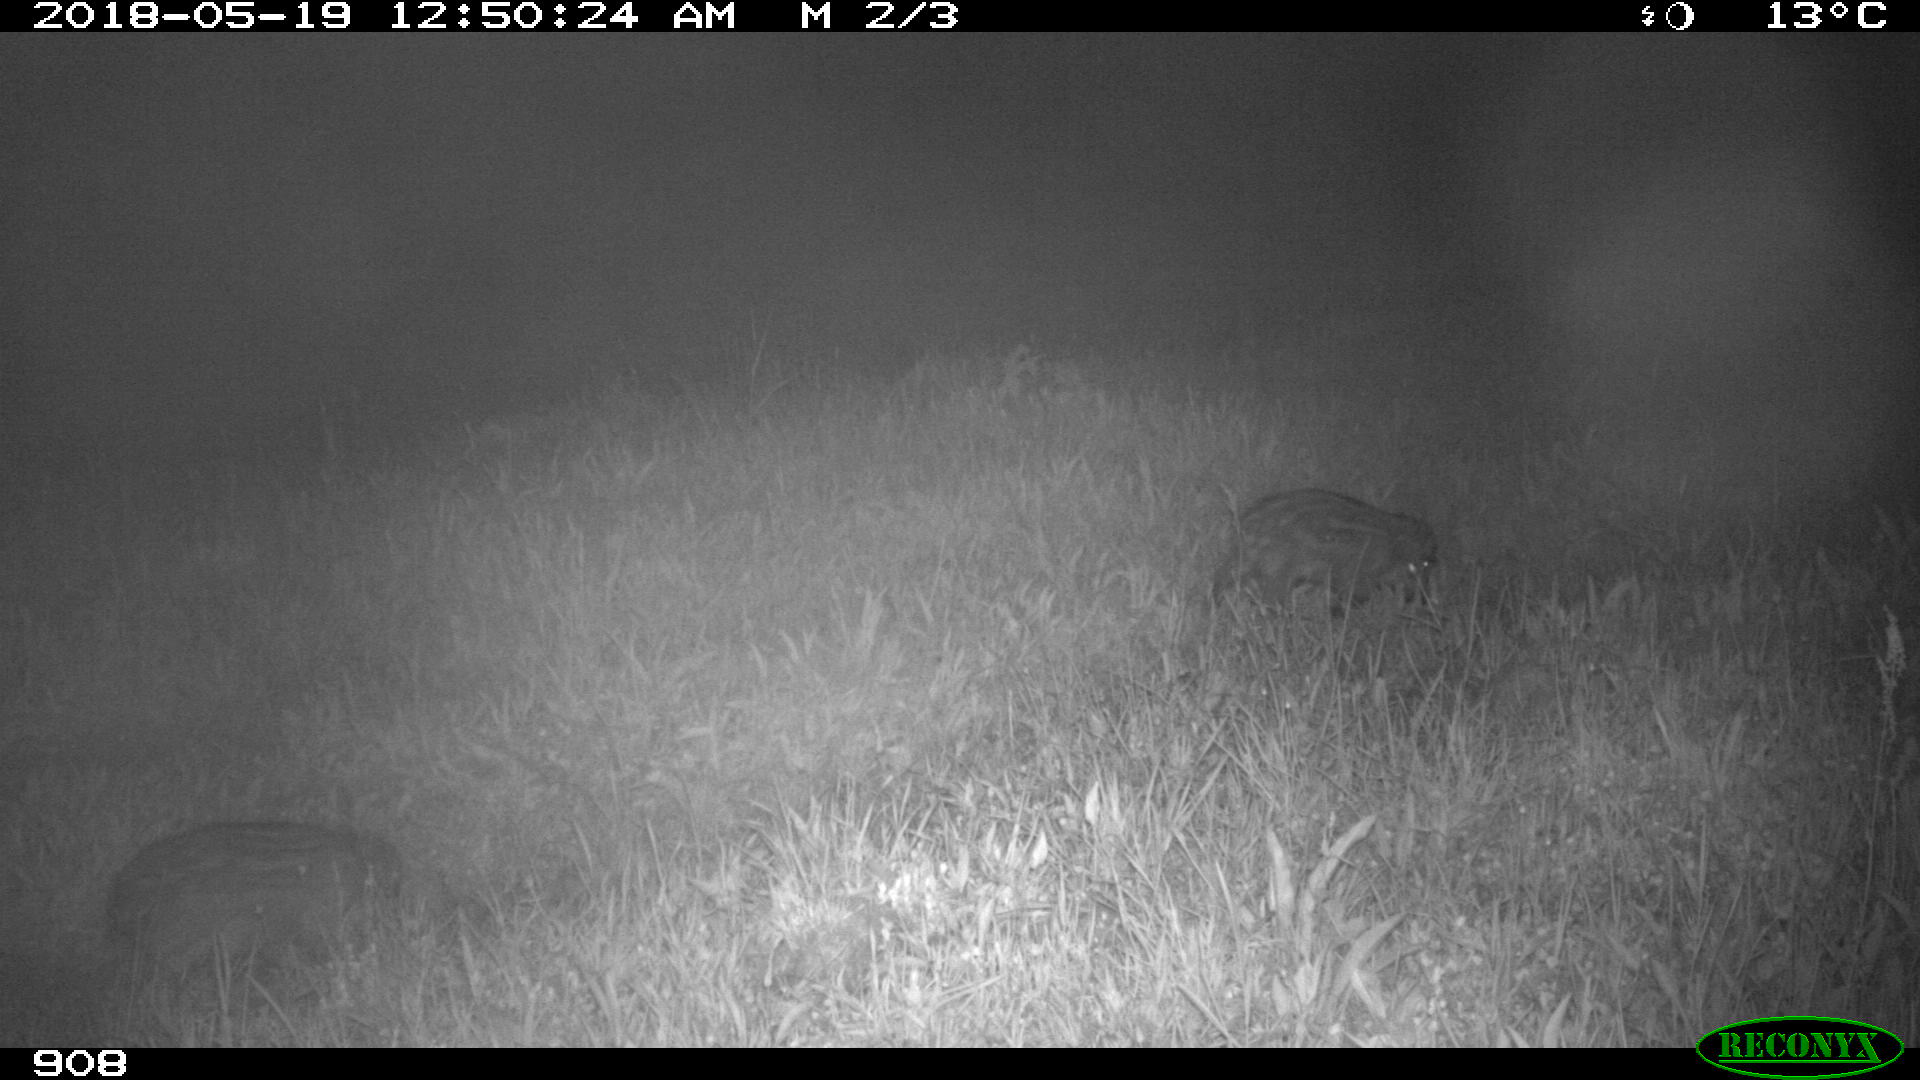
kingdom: Animalia
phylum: Chordata
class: Mammalia
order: Artiodactyla
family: Suidae
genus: Sus
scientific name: Sus scrofa
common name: Wild boar
